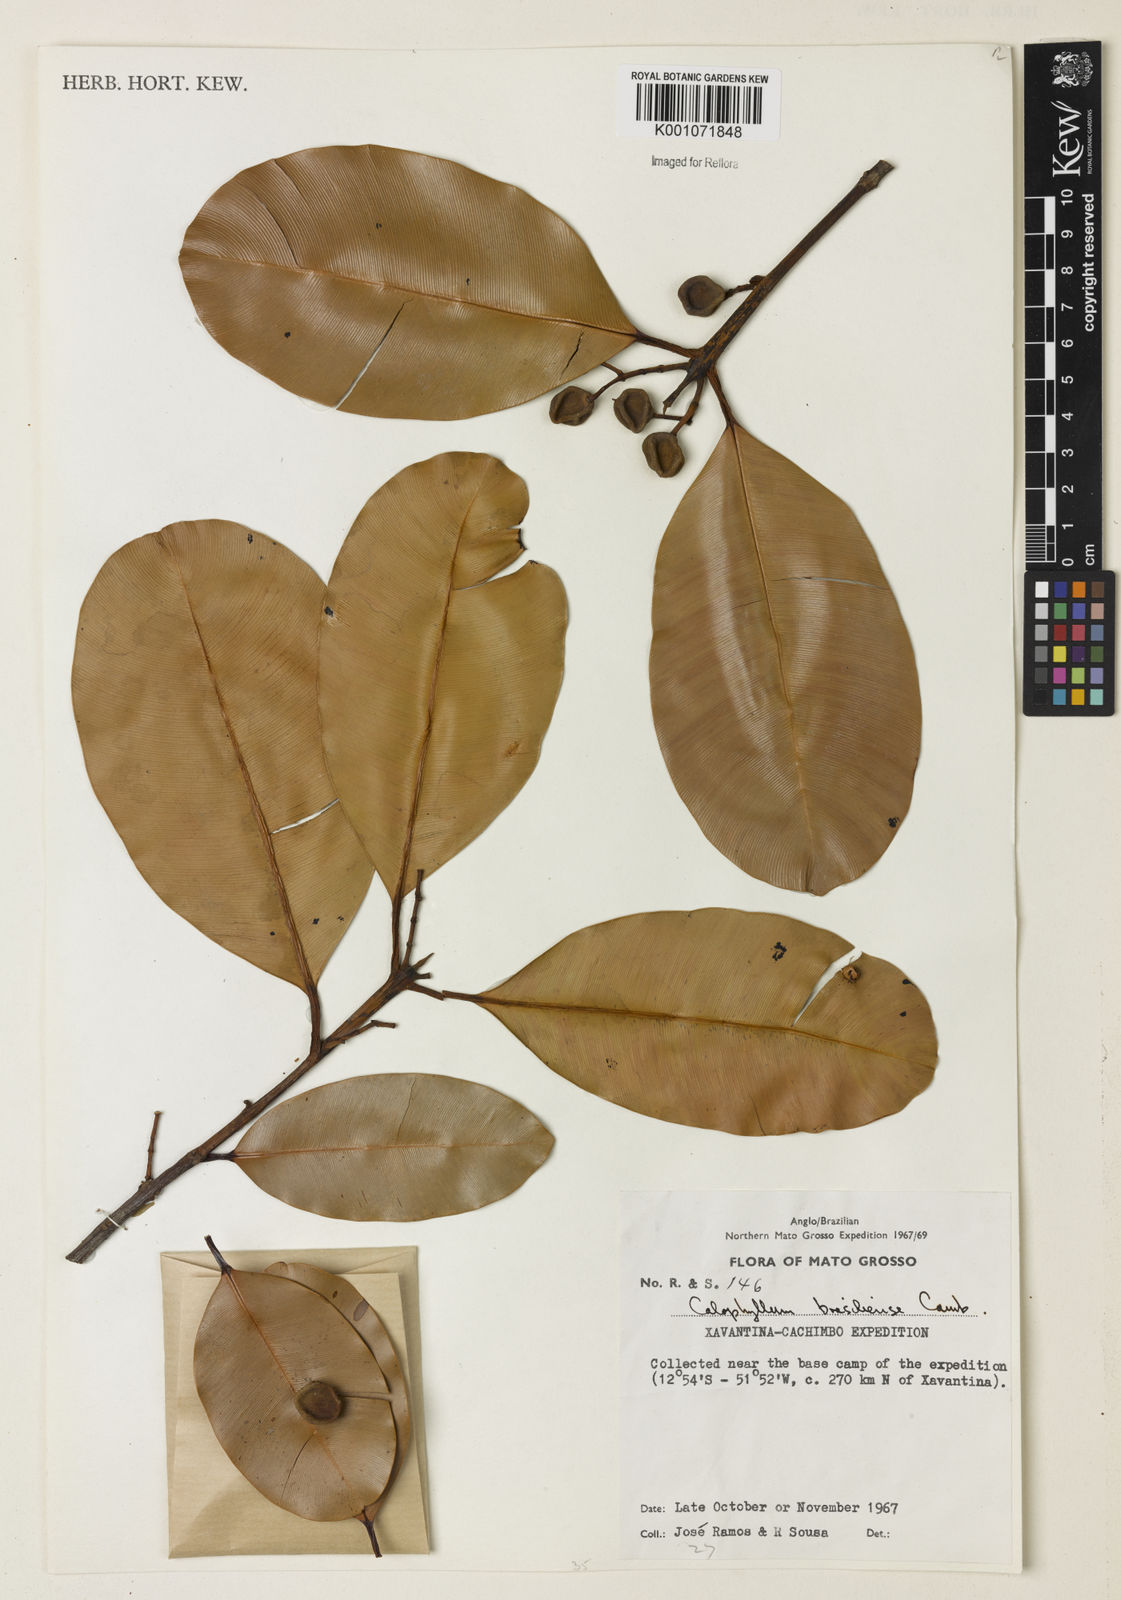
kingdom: Plantae
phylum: Tracheophyta
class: Magnoliopsida
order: Malpighiales
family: Calophyllaceae
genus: Calophyllum
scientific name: Calophyllum brasiliense
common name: Santa maria
